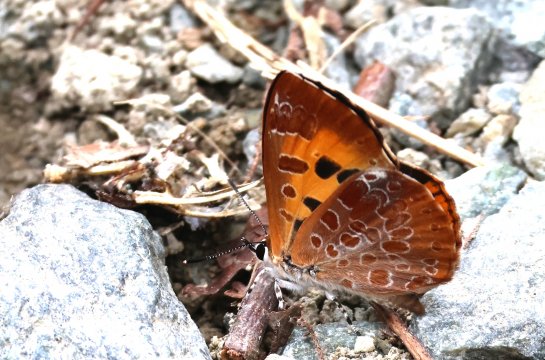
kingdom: Animalia
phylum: Arthropoda
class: Insecta
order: Lepidoptera
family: Lycaenidae
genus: Feniseca
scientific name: Feniseca tarquinius
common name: Harvester
